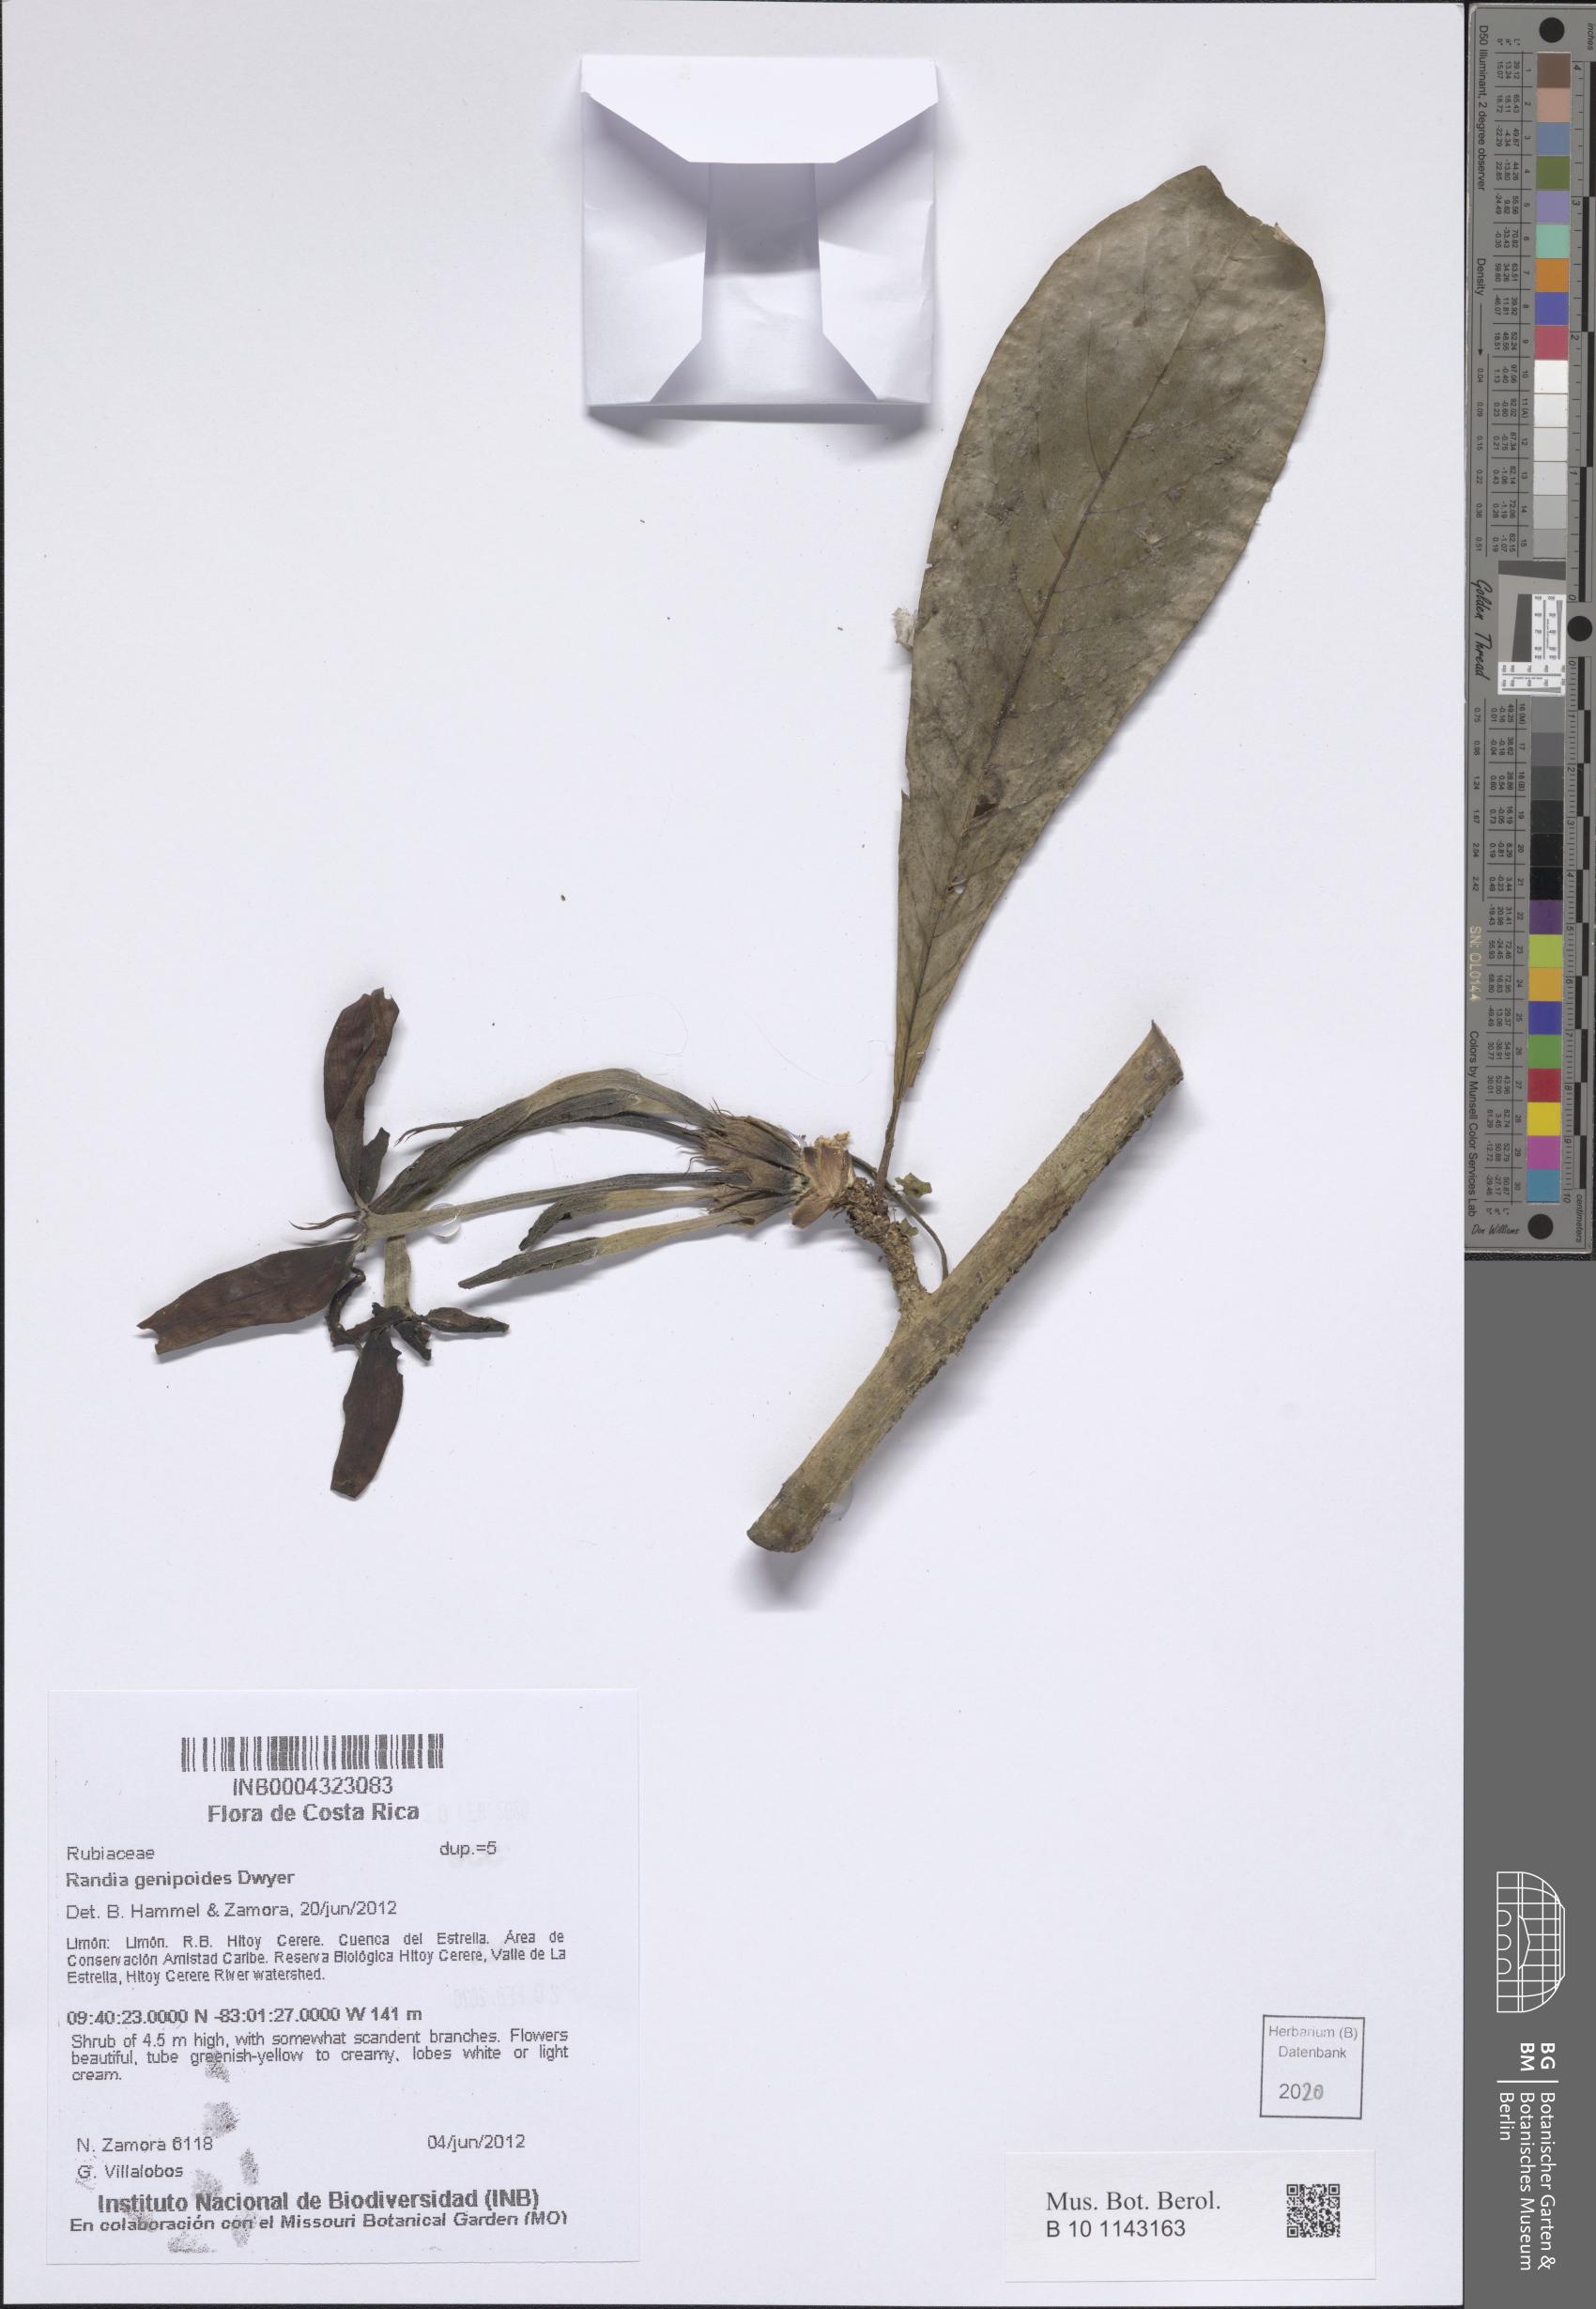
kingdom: Plantae
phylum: Tracheophyta
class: Magnoliopsida
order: Gentianales
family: Rubiaceae
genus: Randia
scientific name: Randia genipoides
